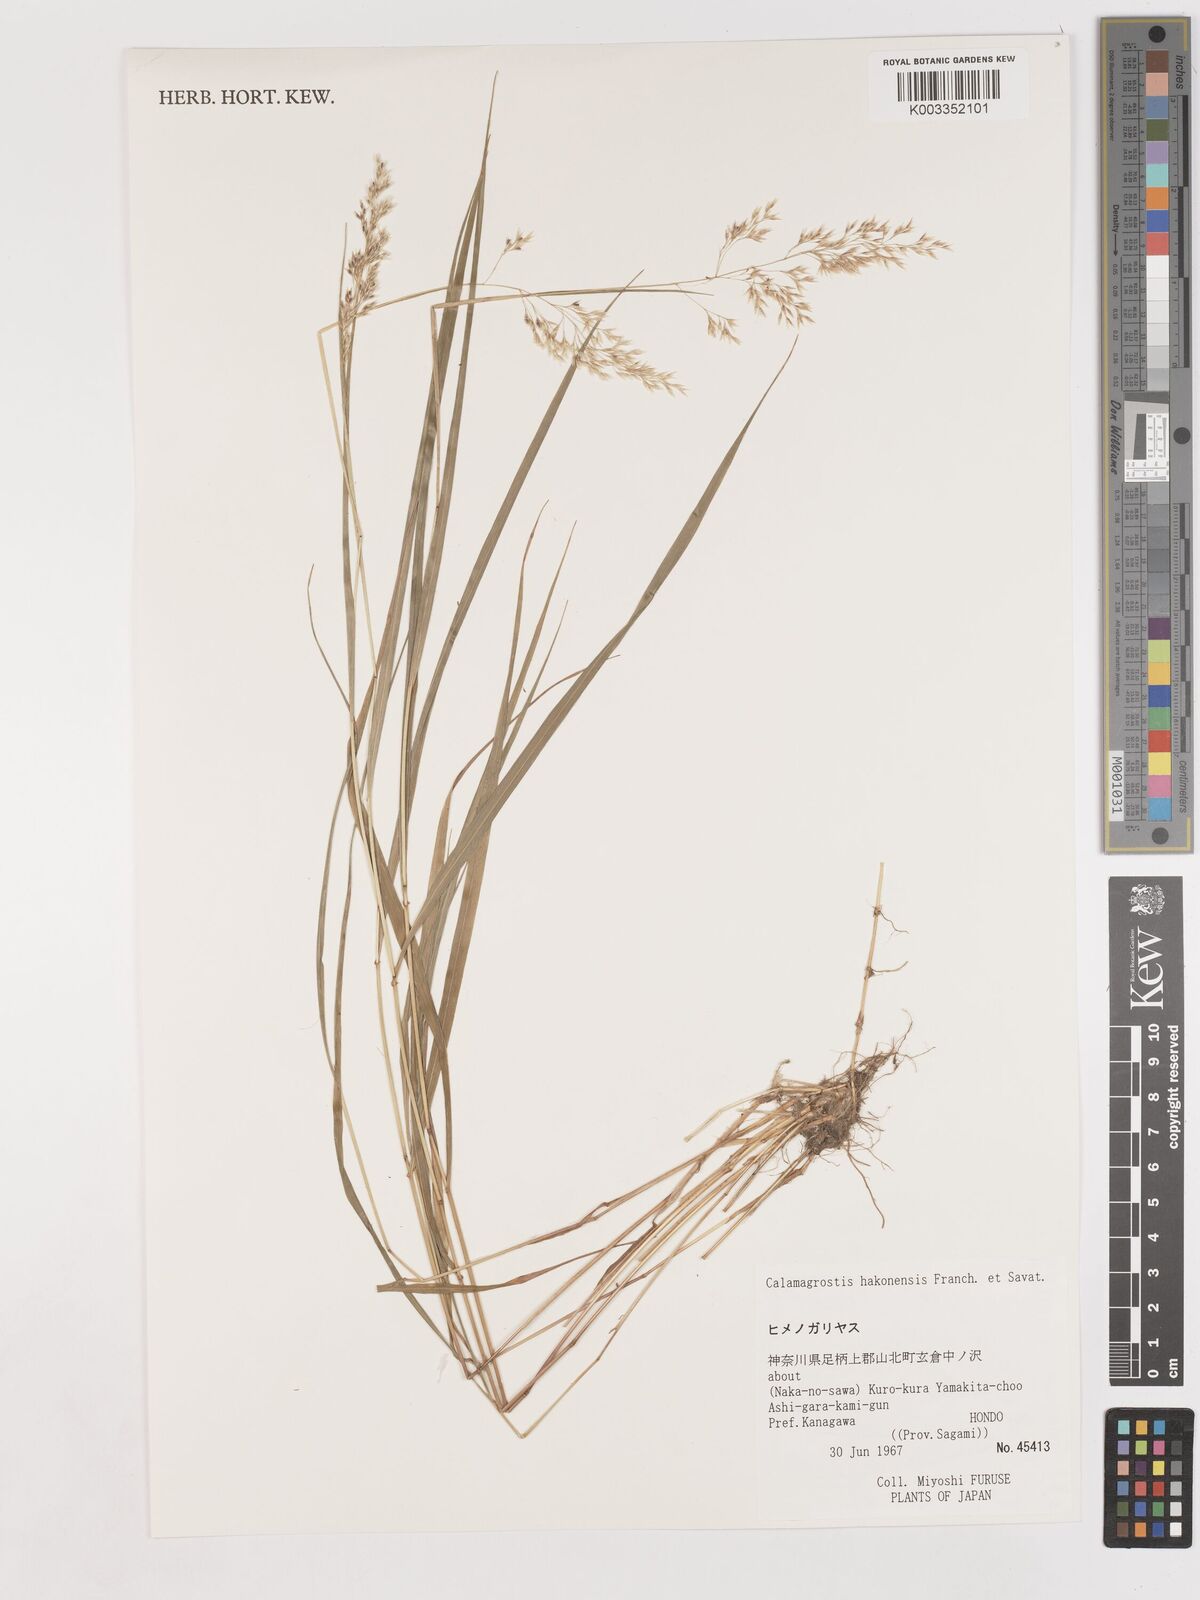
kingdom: Plantae
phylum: Tracheophyta
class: Liliopsida
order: Poales
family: Poaceae
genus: Calamagrostis
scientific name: Calamagrostis hakonensis
